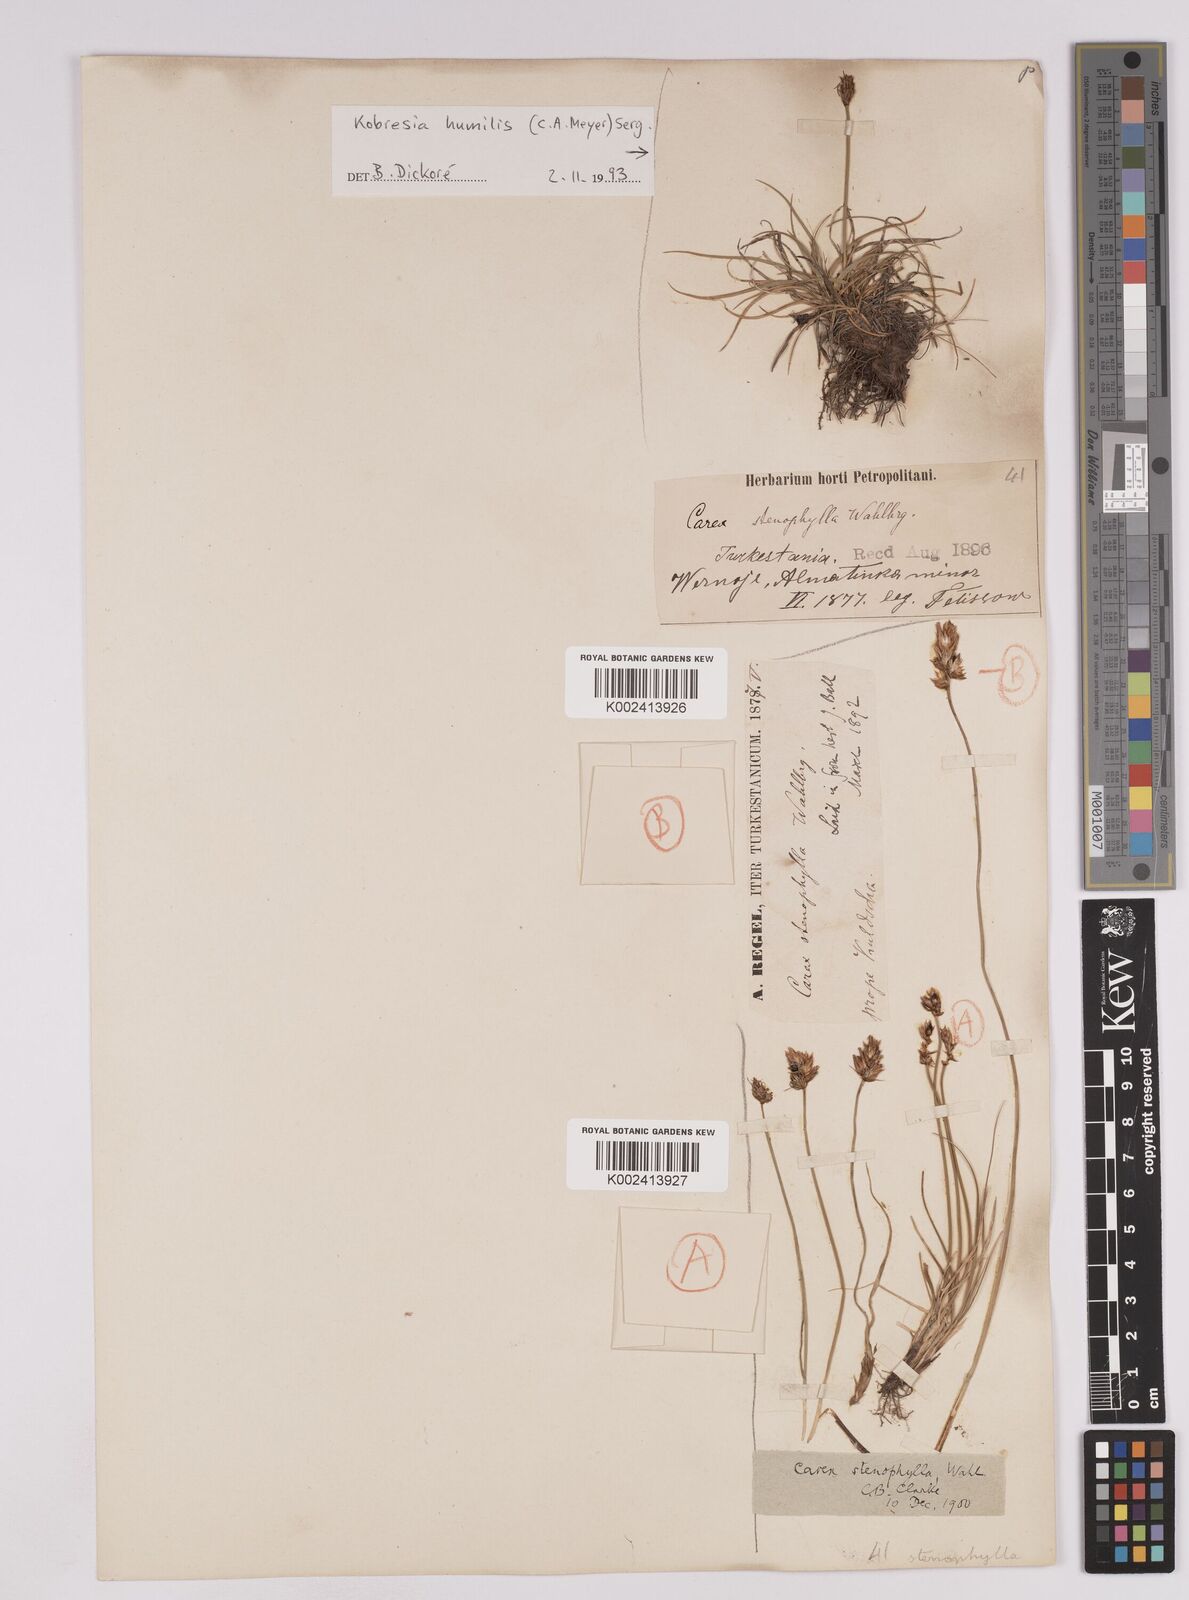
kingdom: Plantae
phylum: Tracheophyta
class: Liliopsida
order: Poales
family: Cyperaceae
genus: Carex
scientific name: Carex alatauensis
